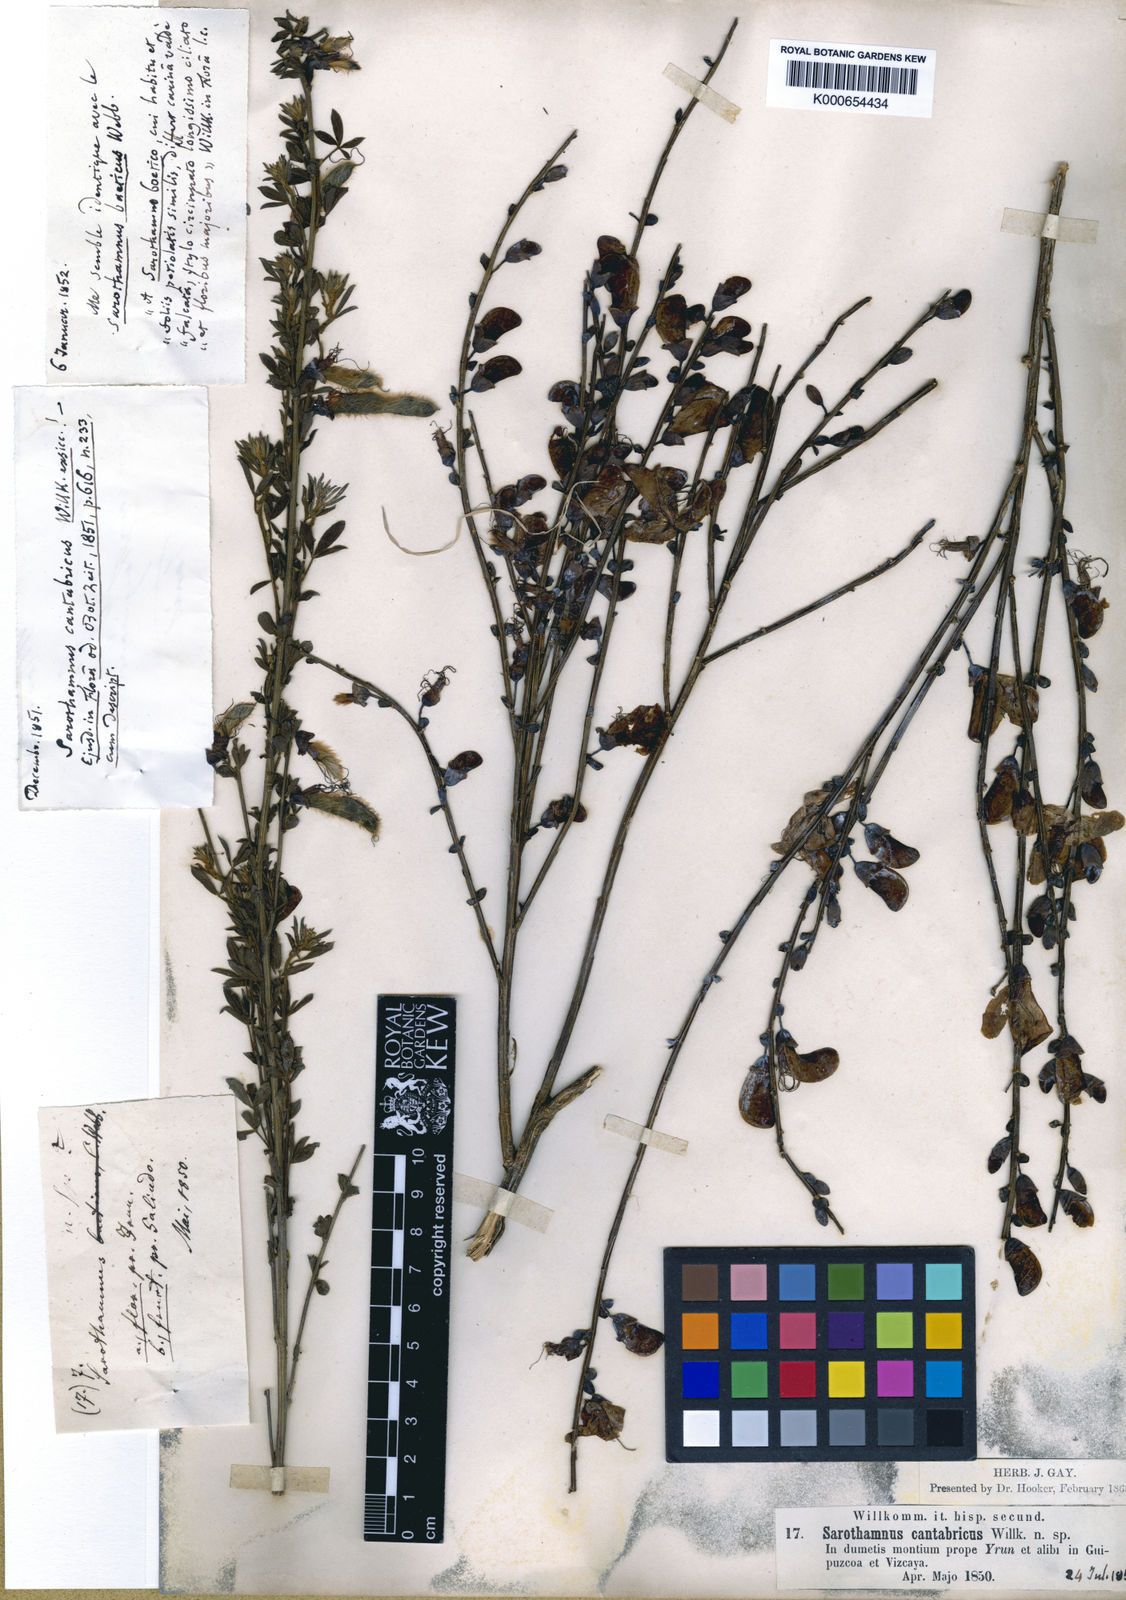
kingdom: Plantae
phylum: Tracheophyta
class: Magnoliopsida
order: Fabales
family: Fabaceae
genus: Cytisus
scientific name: Cytisus
